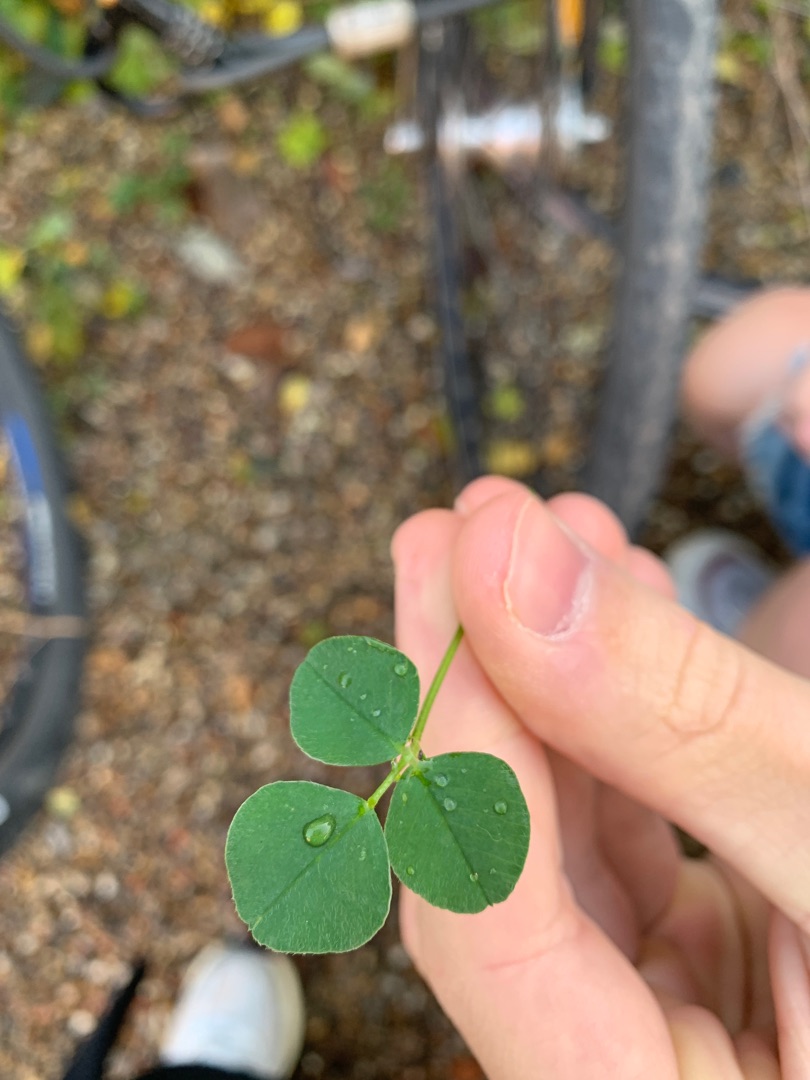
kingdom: Plantae
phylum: Tracheophyta
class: Magnoliopsida
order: Fabales
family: Fabaceae
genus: Medicago
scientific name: Medicago lupulina
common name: Humle-sneglebælg
